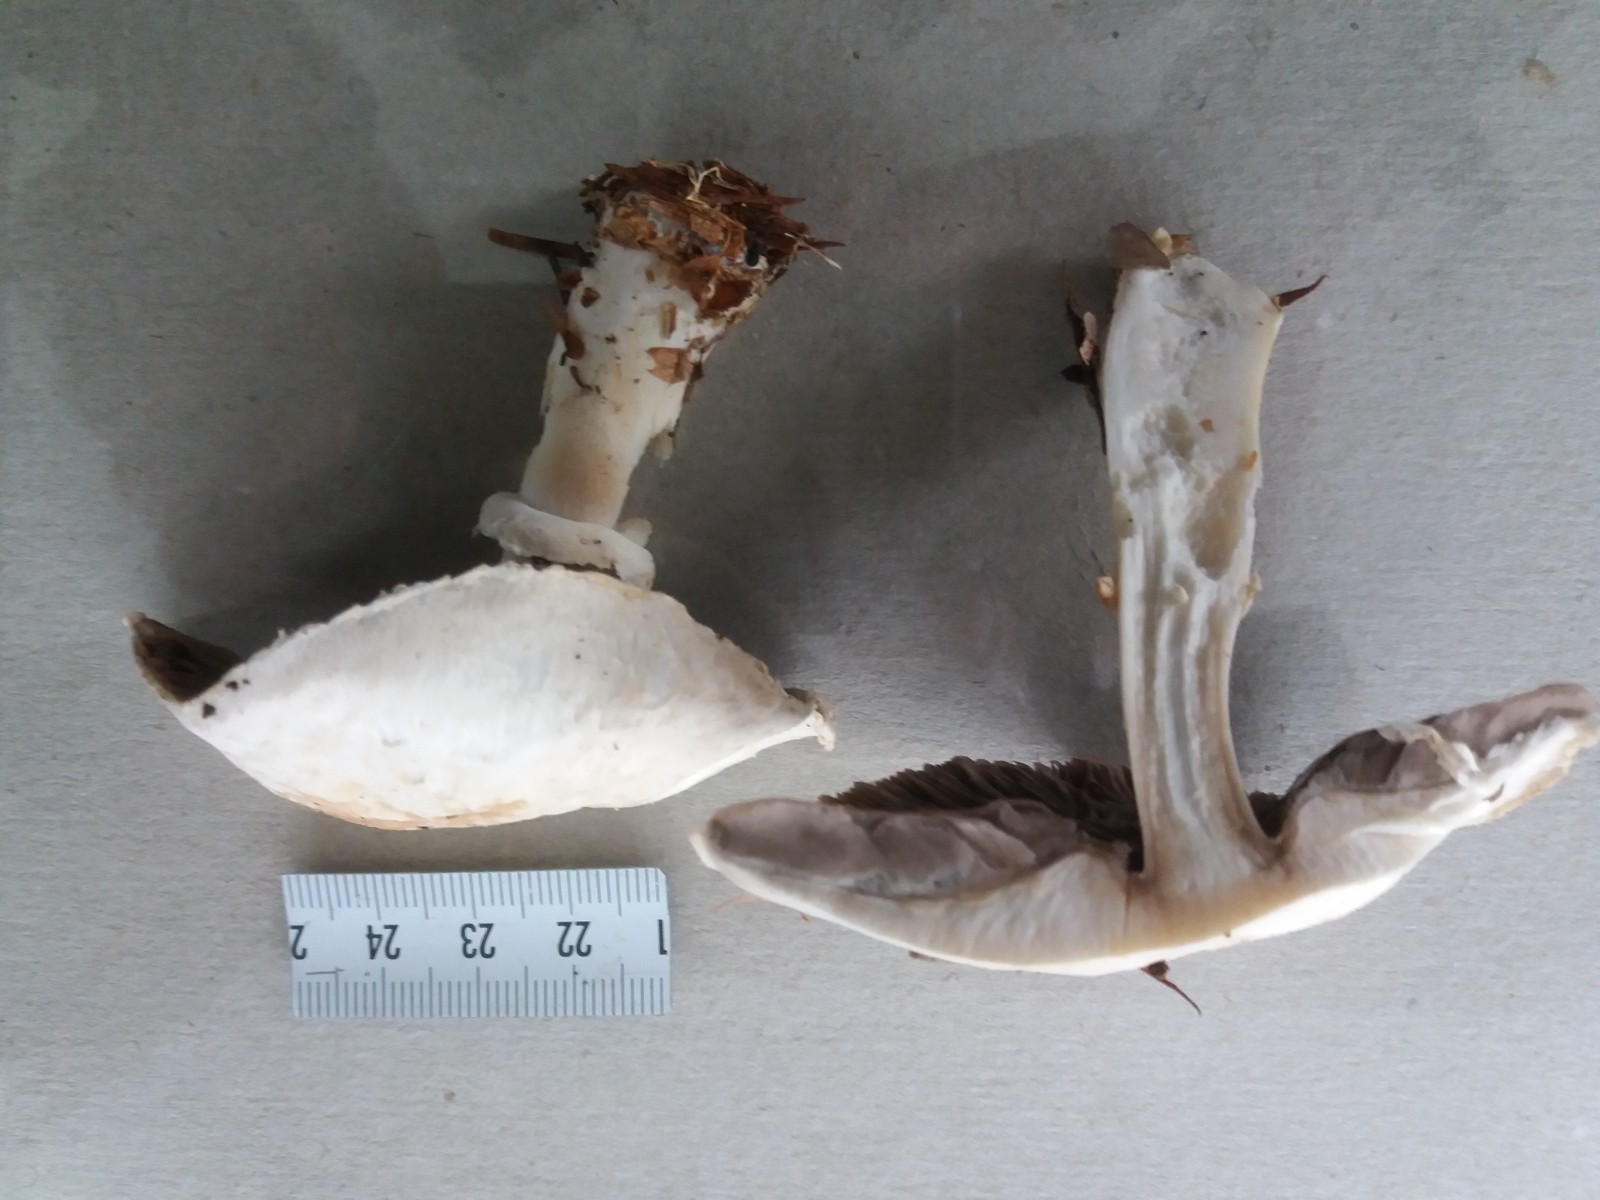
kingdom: Fungi
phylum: Basidiomycota
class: Agaricomycetes
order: Agaricales
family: Agaricaceae
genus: Agaricus
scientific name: Agaricus sylvicola
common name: skiveknoldet champignon
